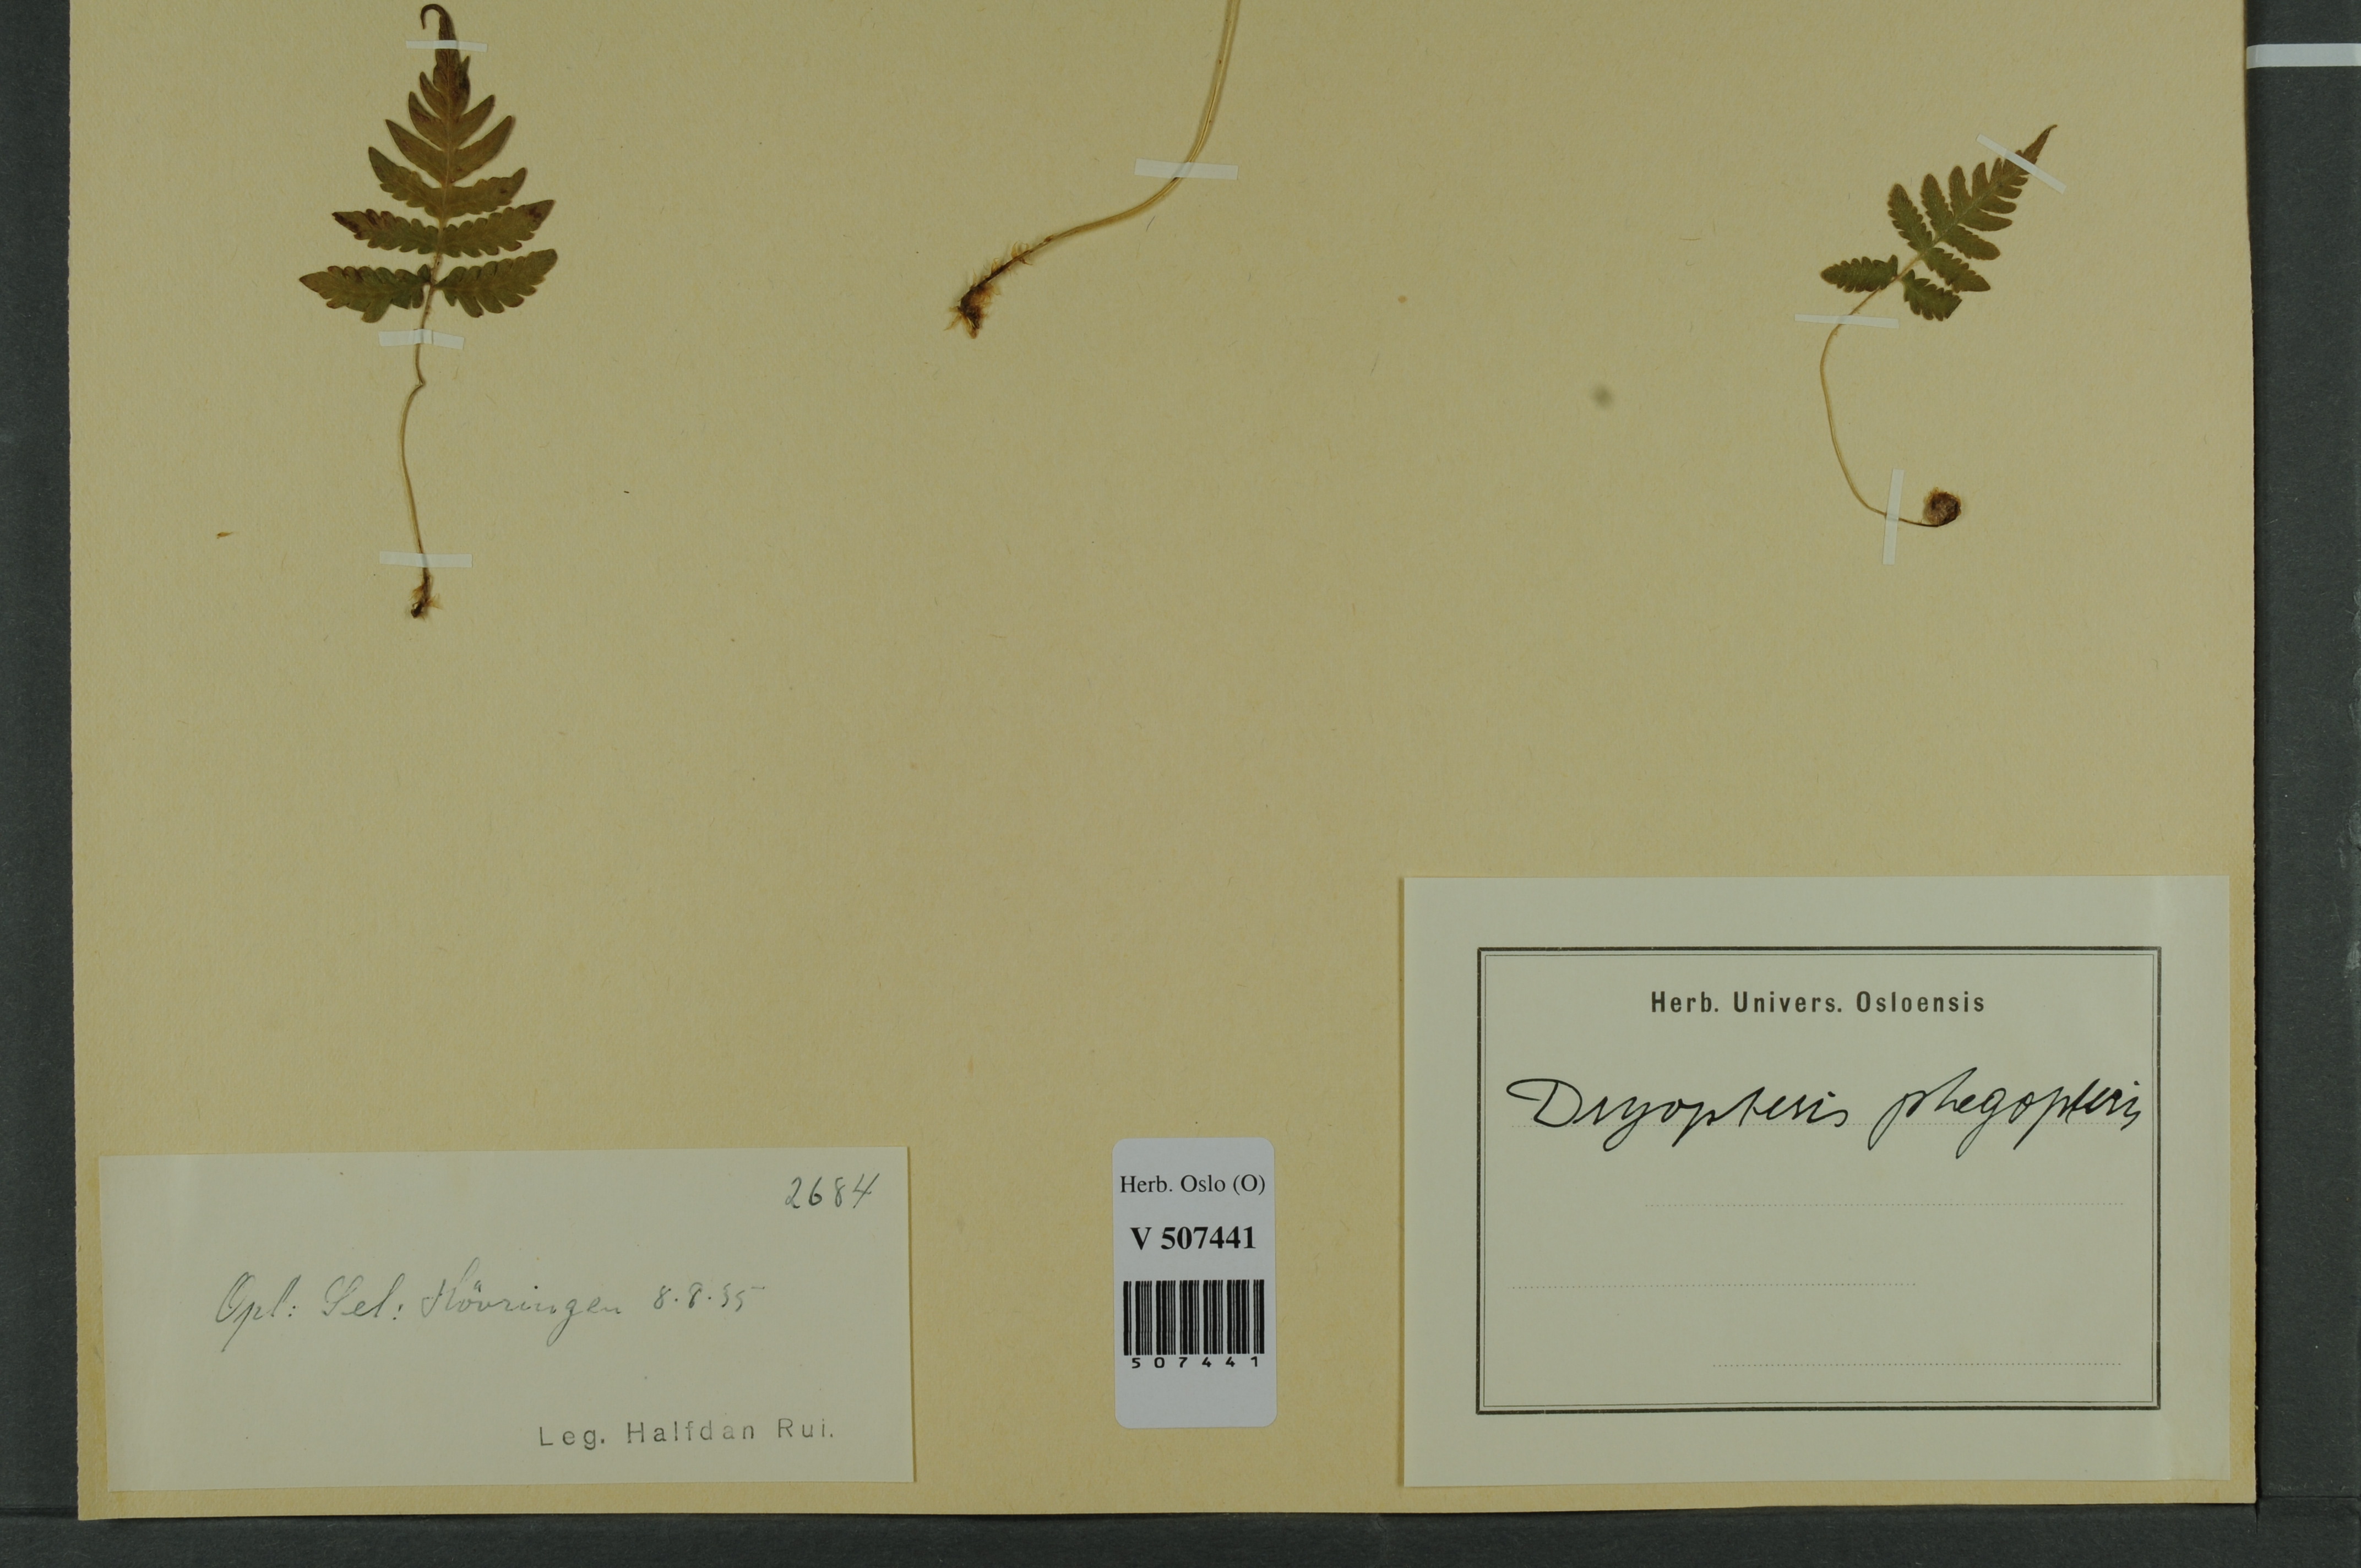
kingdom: Plantae
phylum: Tracheophyta
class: Polypodiopsida
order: Polypodiales
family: Thelypteridaceae
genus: Phegopteris
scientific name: Phegopteris connectilis
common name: Beech fern
